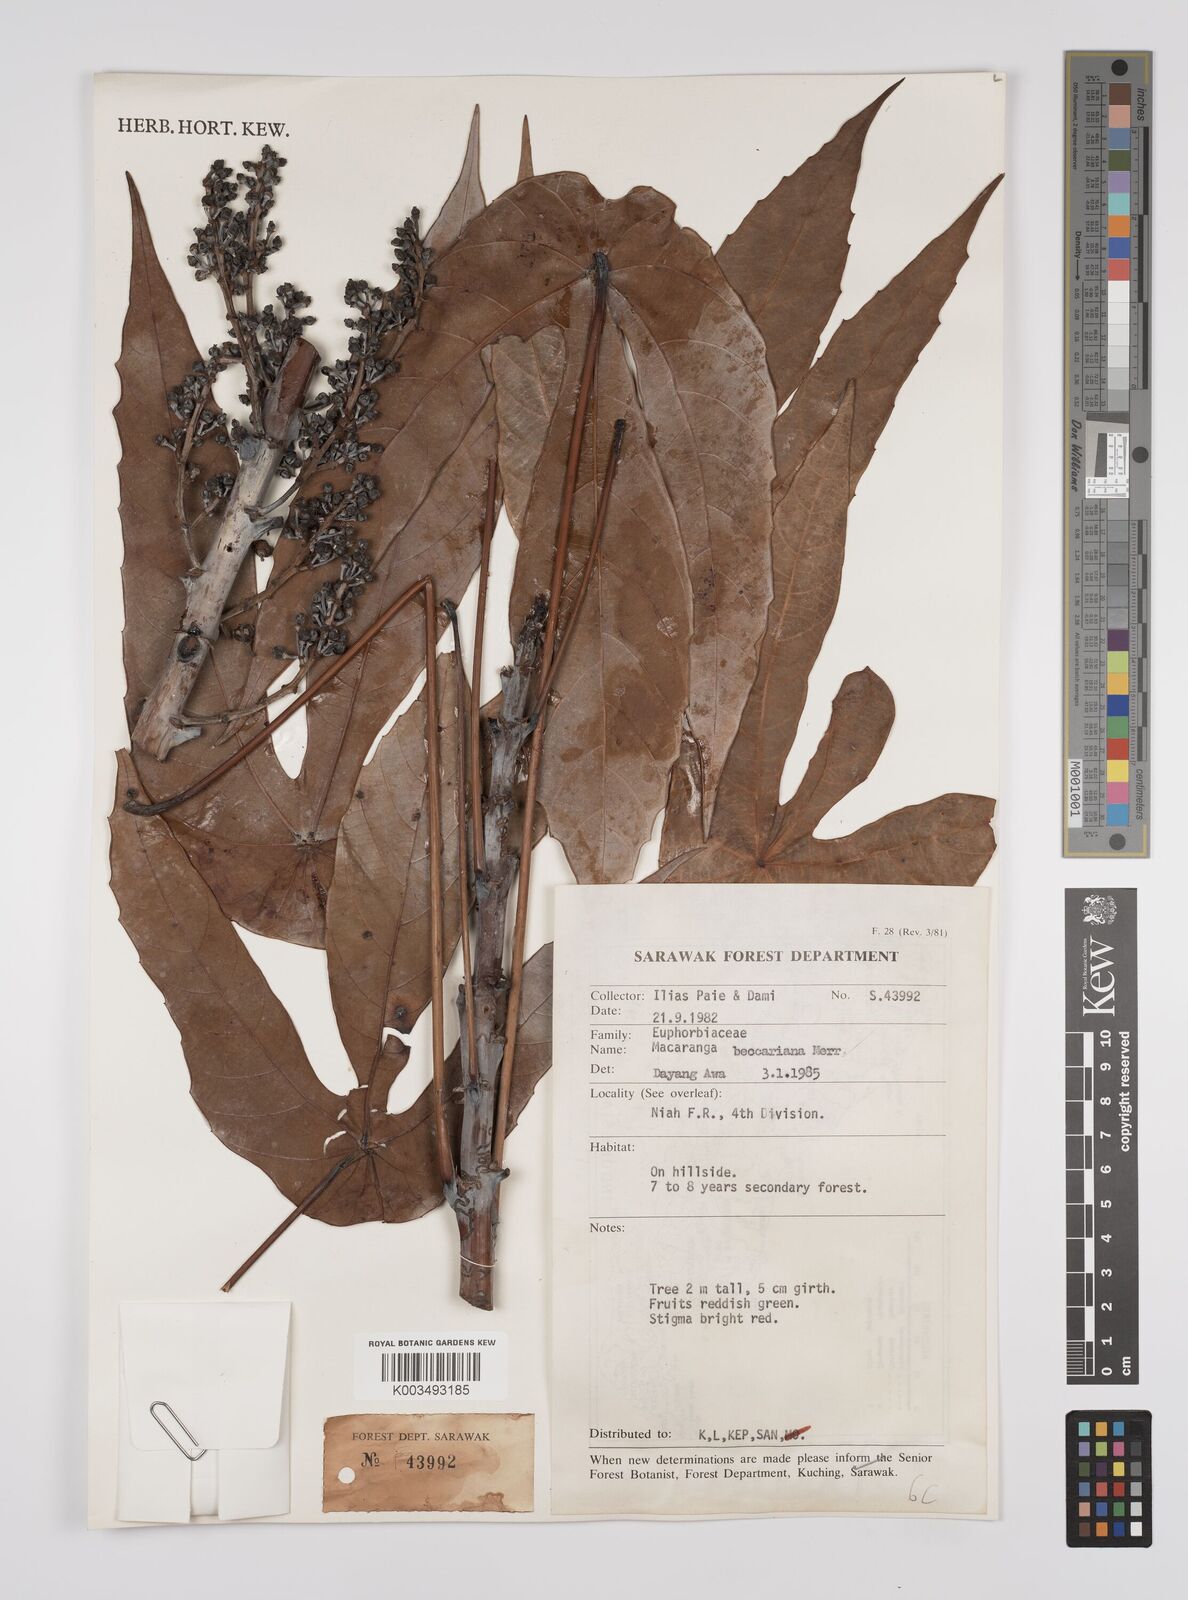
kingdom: Plantae
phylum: Tracheophyta
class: Magnoliopsida
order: Malpighiales
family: Euphorbiaceae
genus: Macaranga
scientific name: Macaranga beccariana
